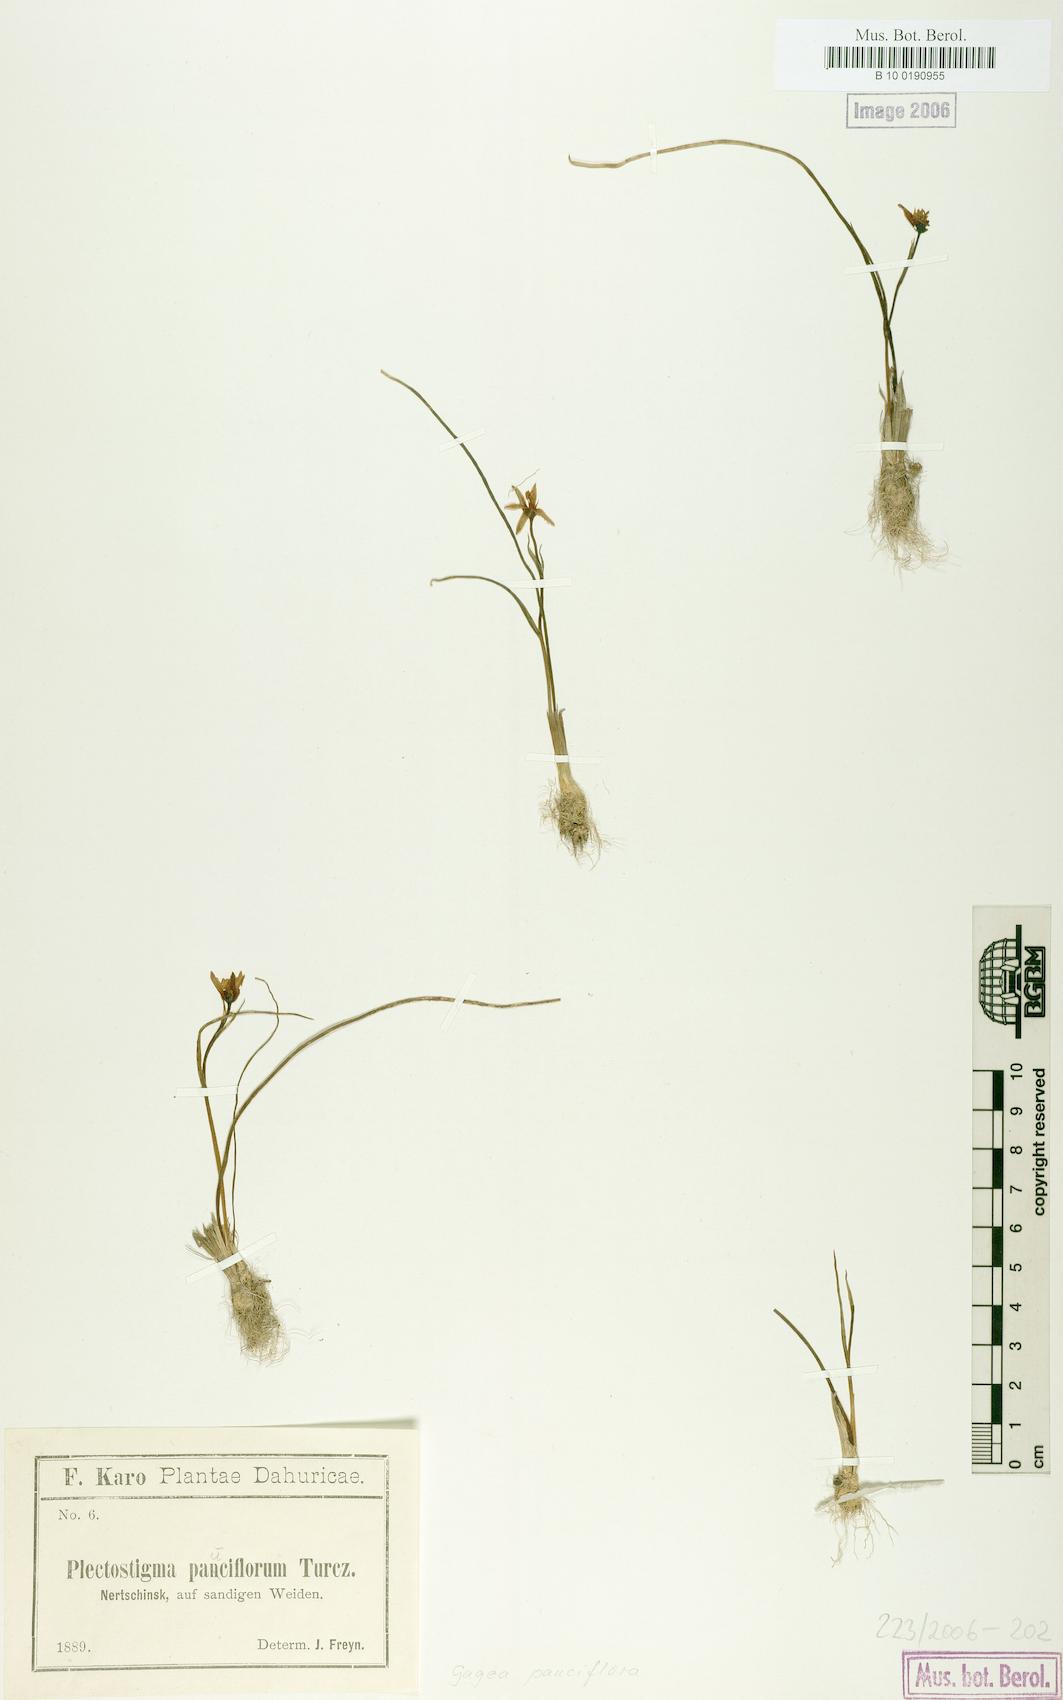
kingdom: Plantae
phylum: Tracheophyta
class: Liliopsida
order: Liliales
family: Liliaceae
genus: Gagea
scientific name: Gagea pauciflora
